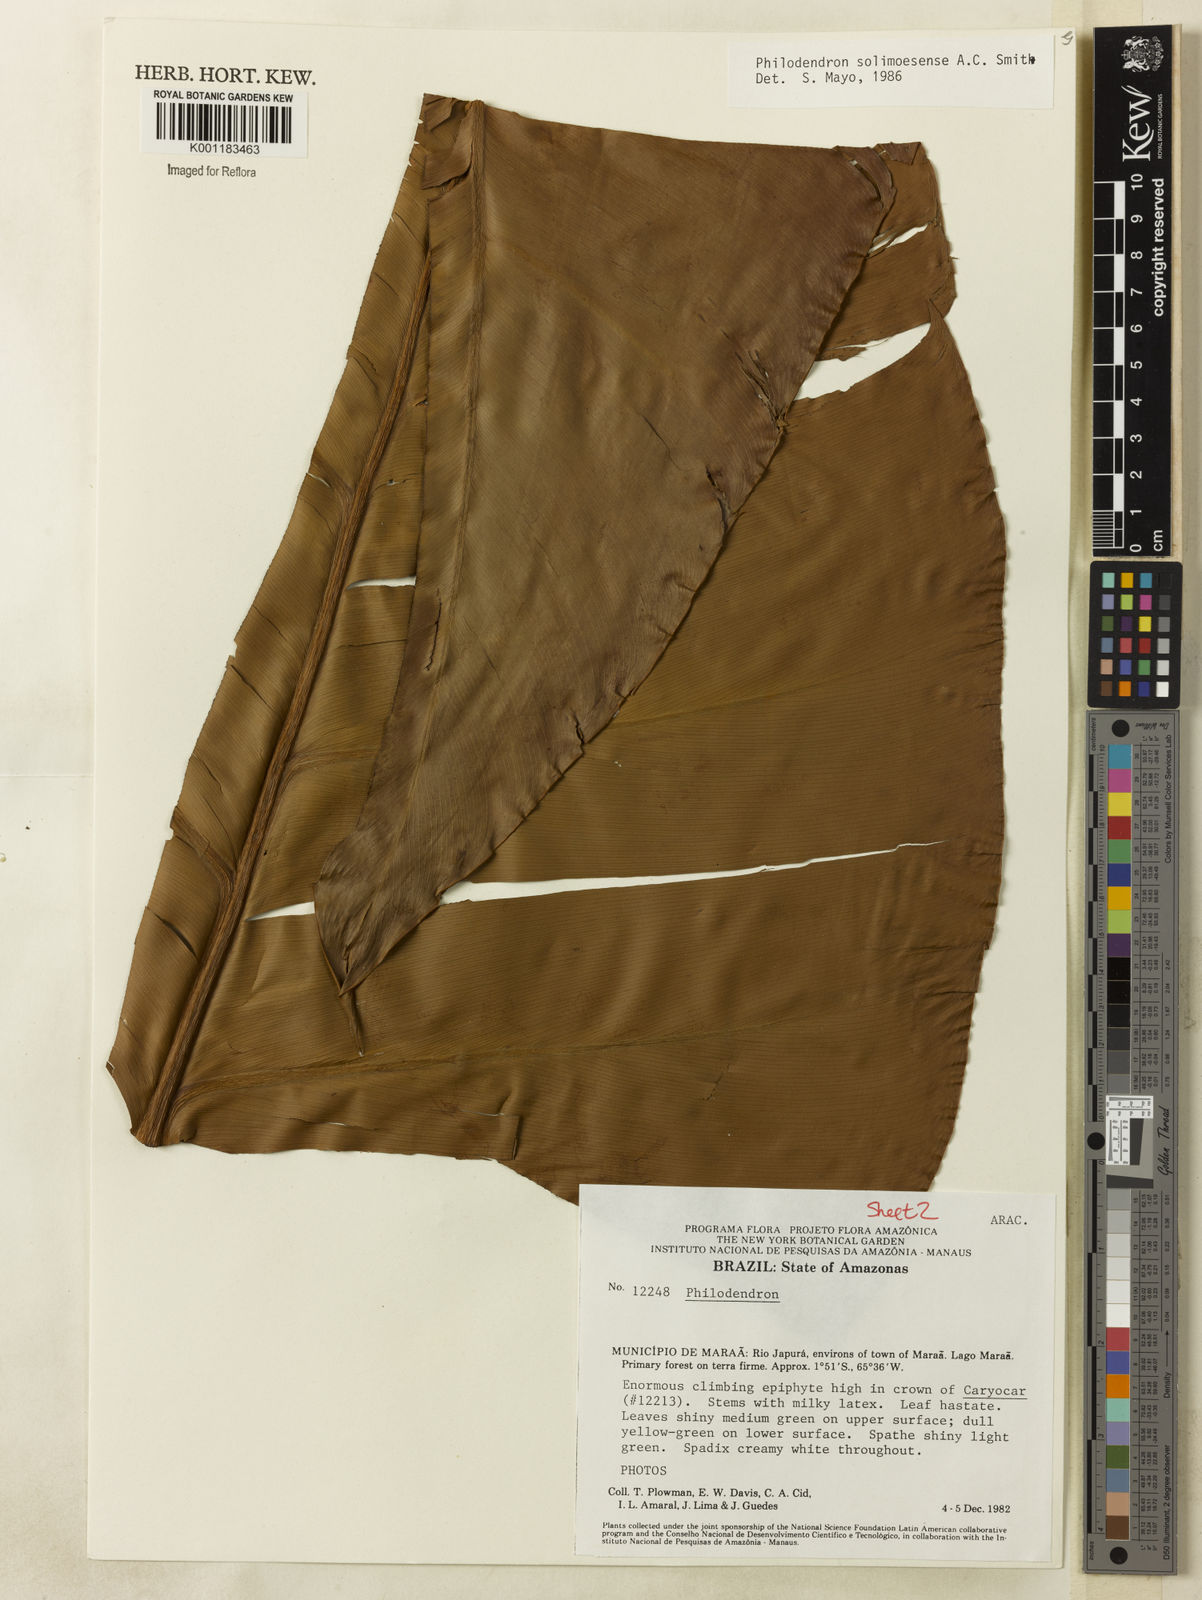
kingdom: Plantae
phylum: Tracheophyta
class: Liliopsida
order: Alismatales
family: Araceae
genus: Thaumatophyllum
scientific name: Thaumatophyllum solimoesense
